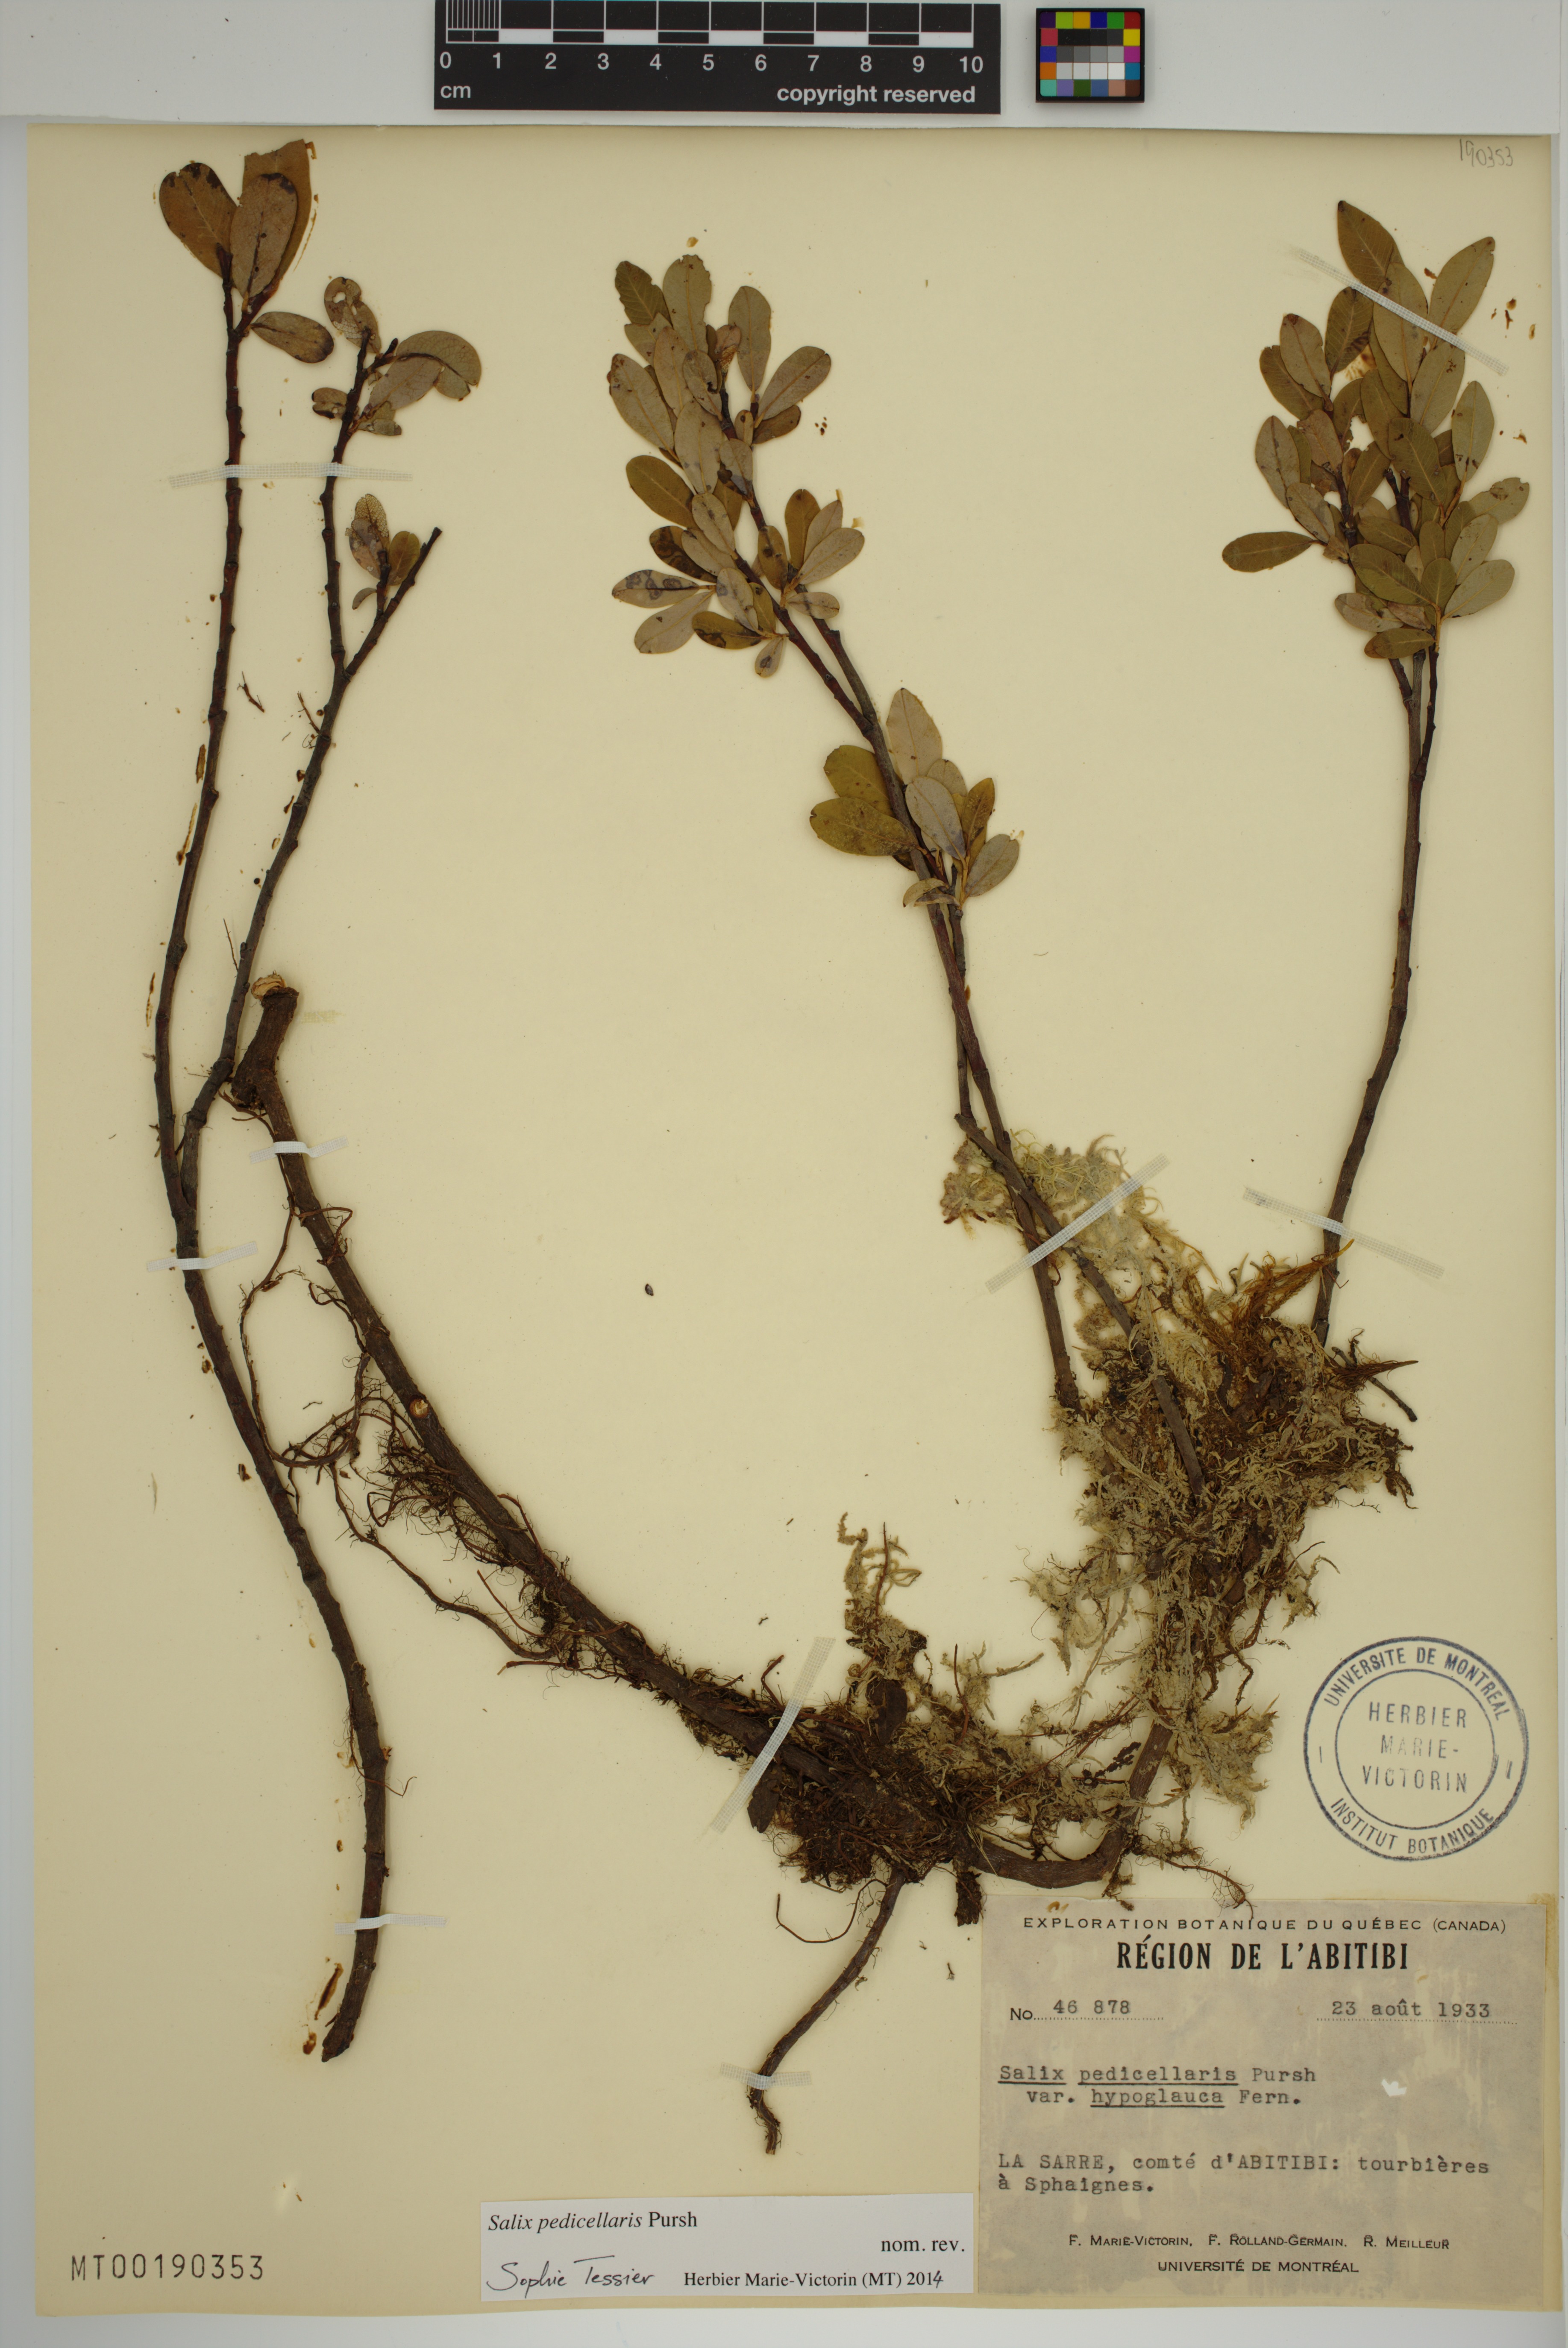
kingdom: Plantae
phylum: Tracheophyta
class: Magnoliopsida
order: Malpighiales
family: Salicaceae
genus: Salix
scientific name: Salix pedicellaris
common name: Bog willow
